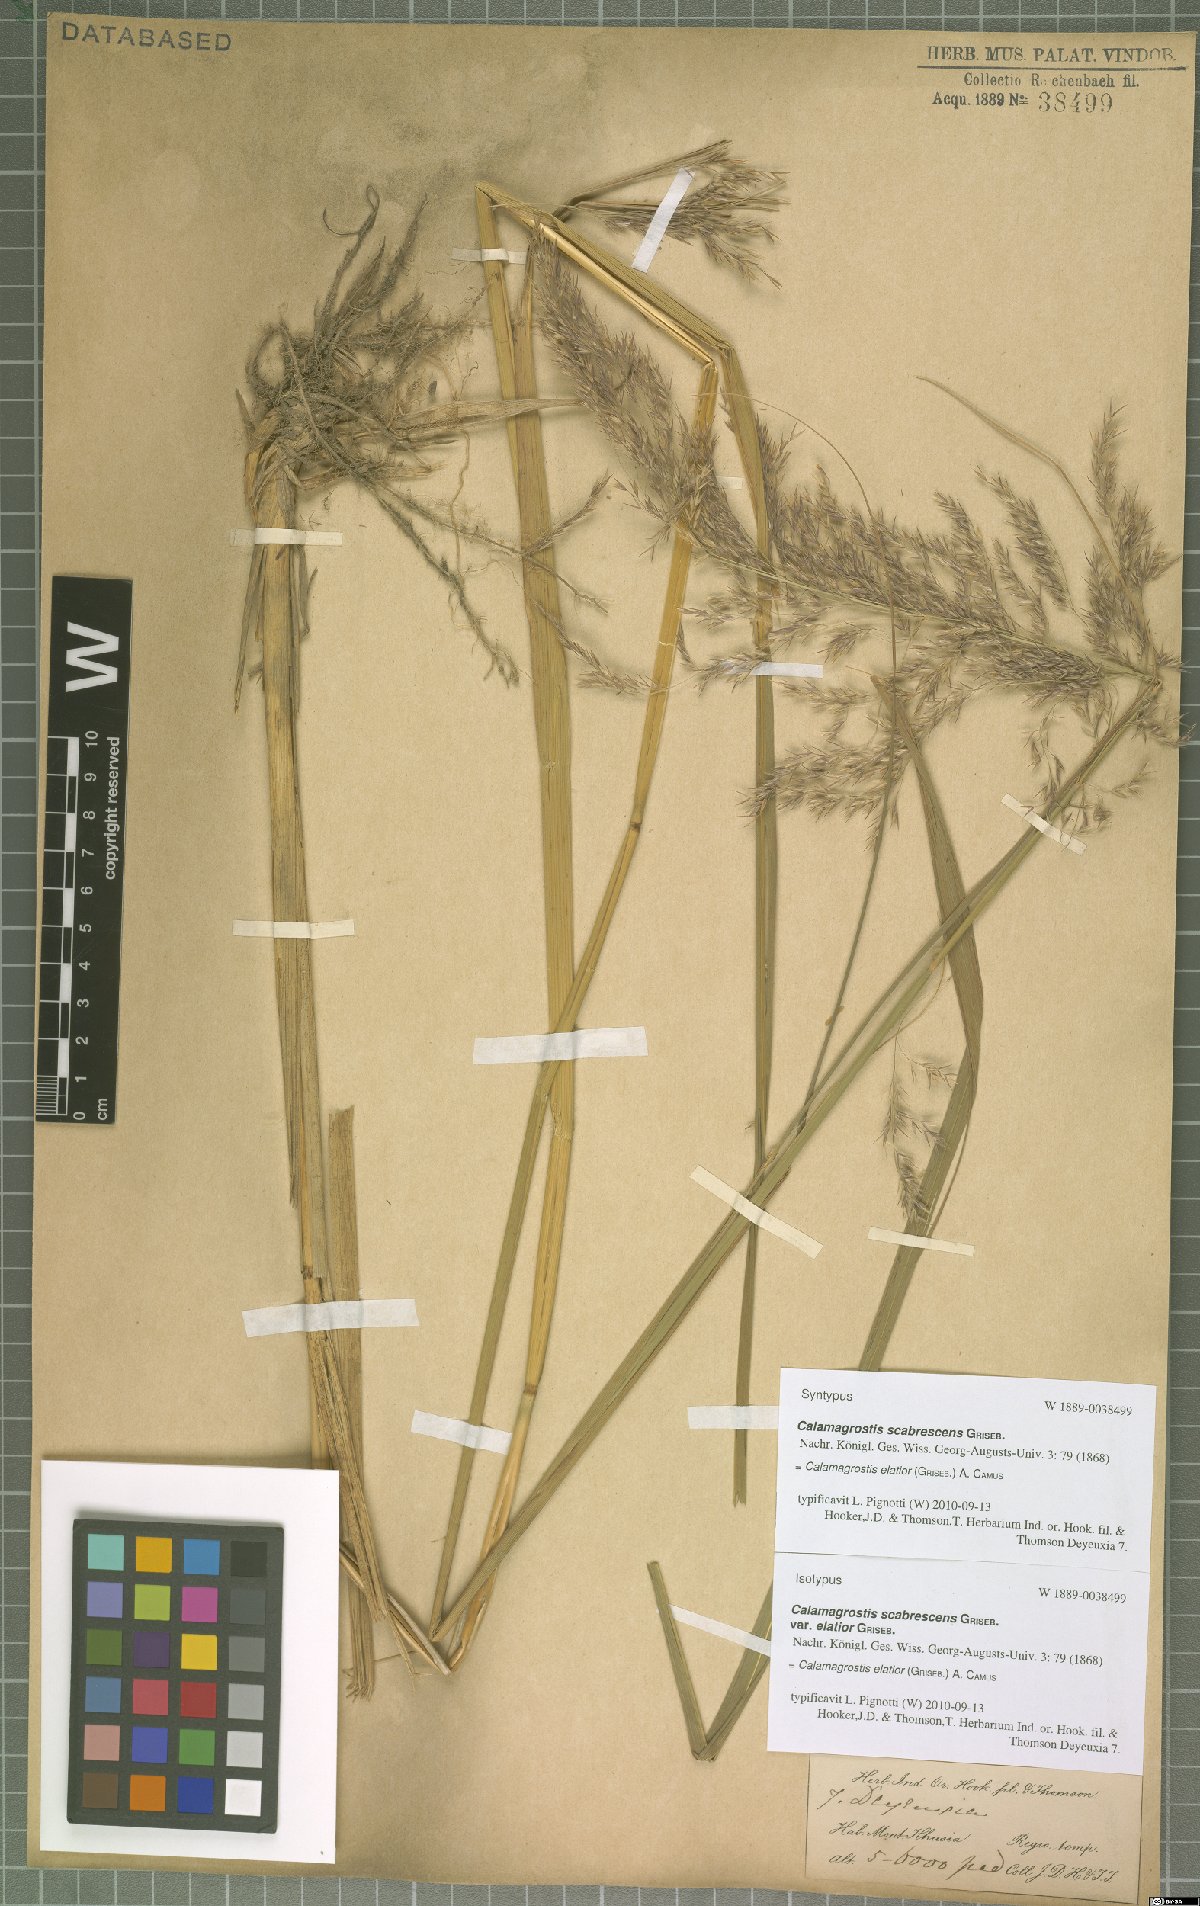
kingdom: Plantae
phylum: Tracheophyta
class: Liliopsida
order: Poales
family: Poaceae
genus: Calamagrostis
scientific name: Calamagrostis elatior
